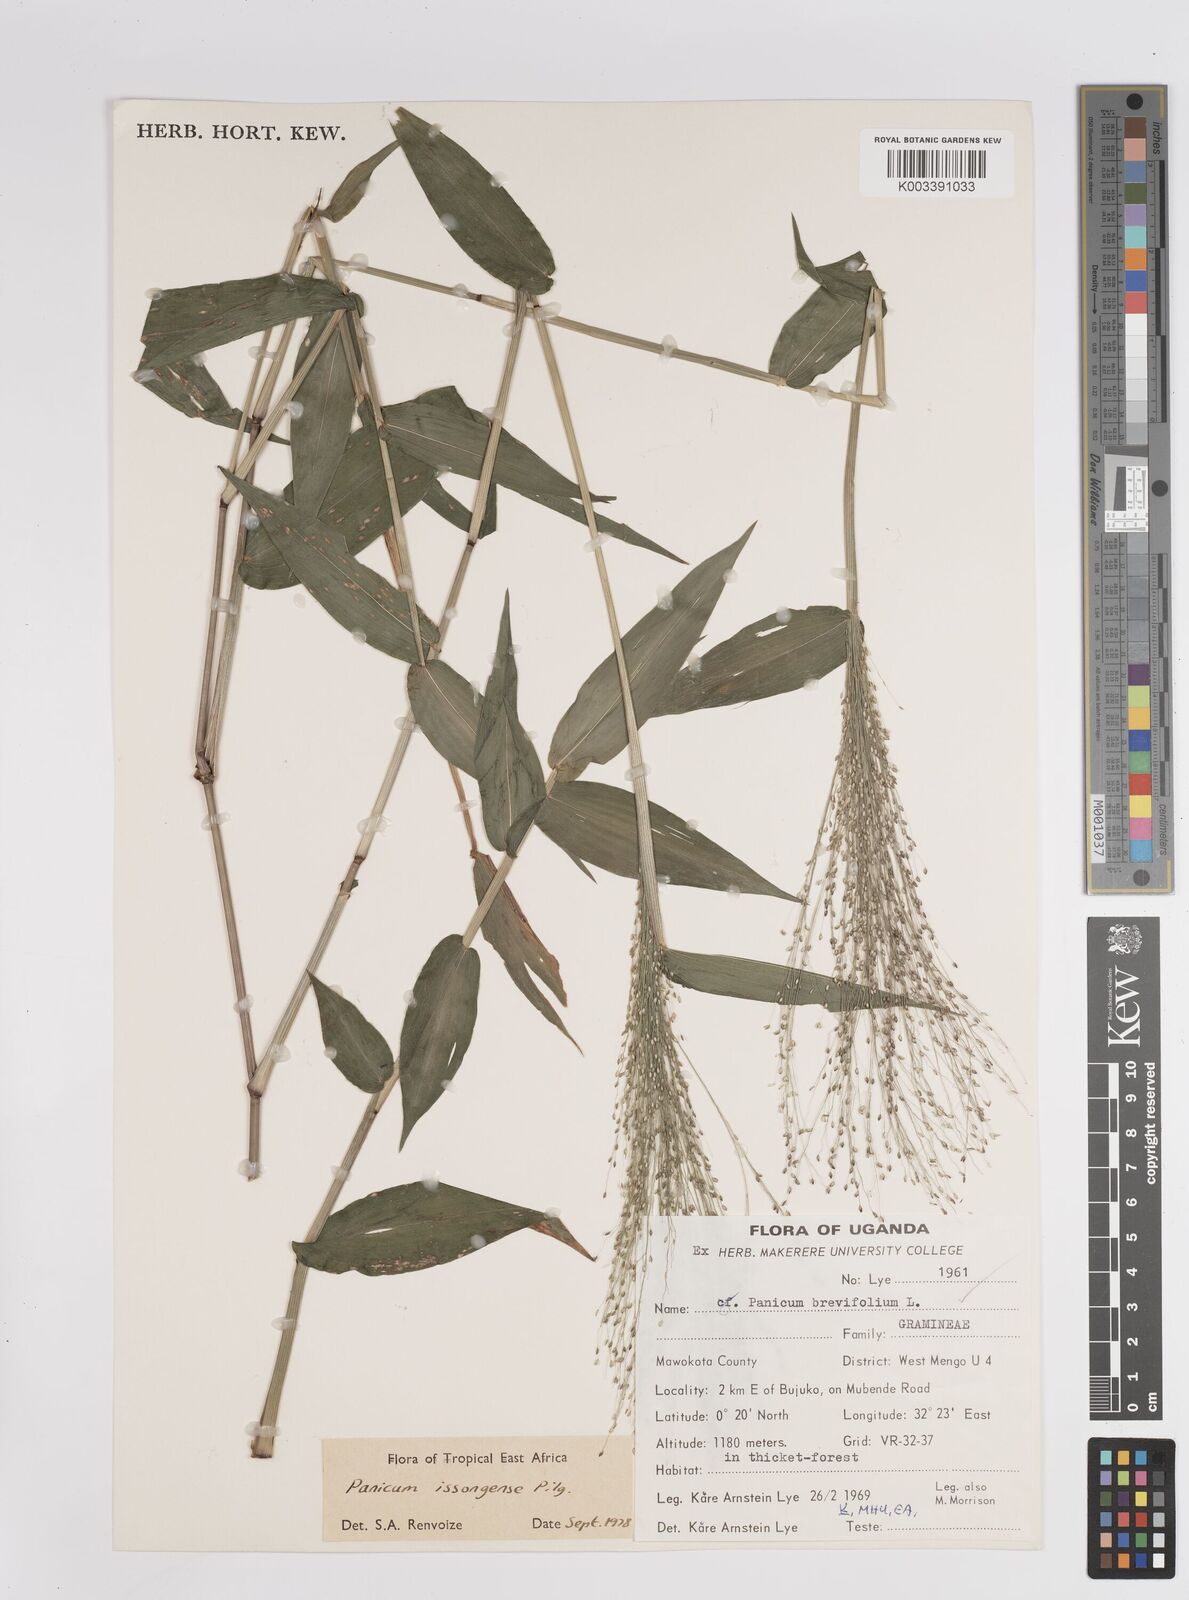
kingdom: Plantae
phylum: Tracheophyta
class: Liliopsida
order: Poales
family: Poaceae
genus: Panicum
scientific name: Panicum issongense
